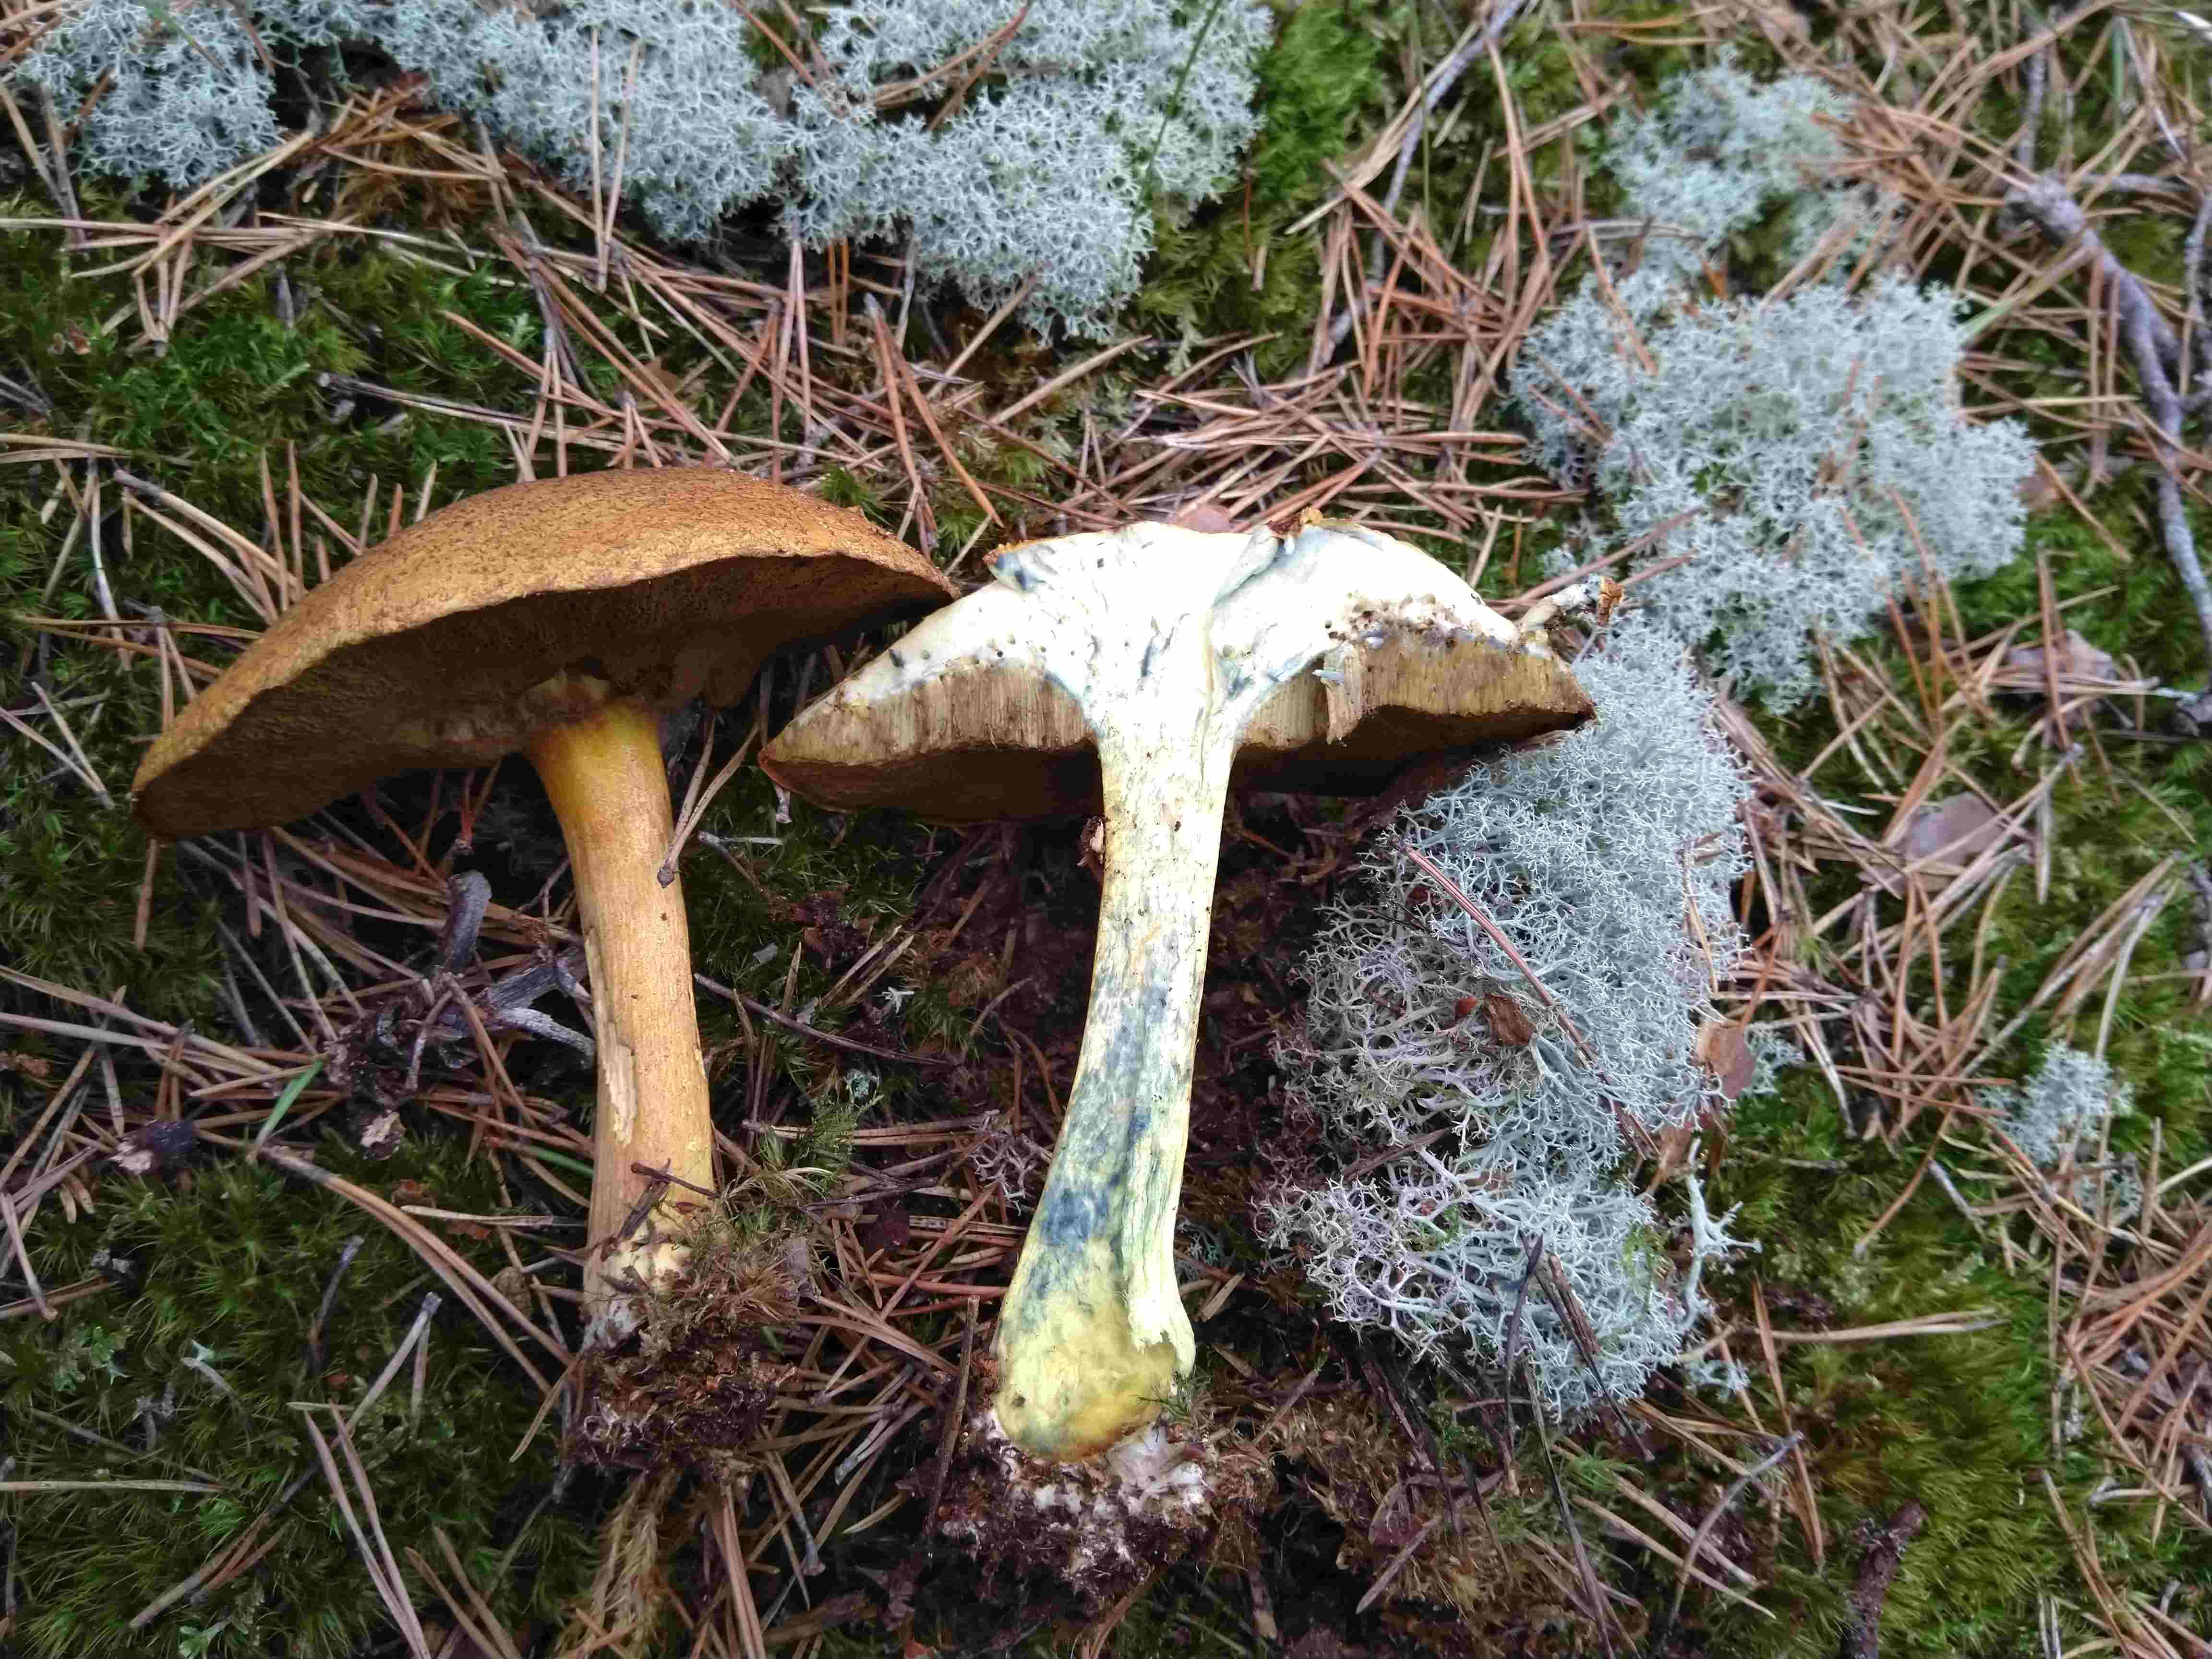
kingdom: Fungi
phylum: Basidiomycota
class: Agaricomycetes
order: Boletales
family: Suillaceae
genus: Suillus
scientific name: Suillus variegatus
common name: broget slimrørhat
